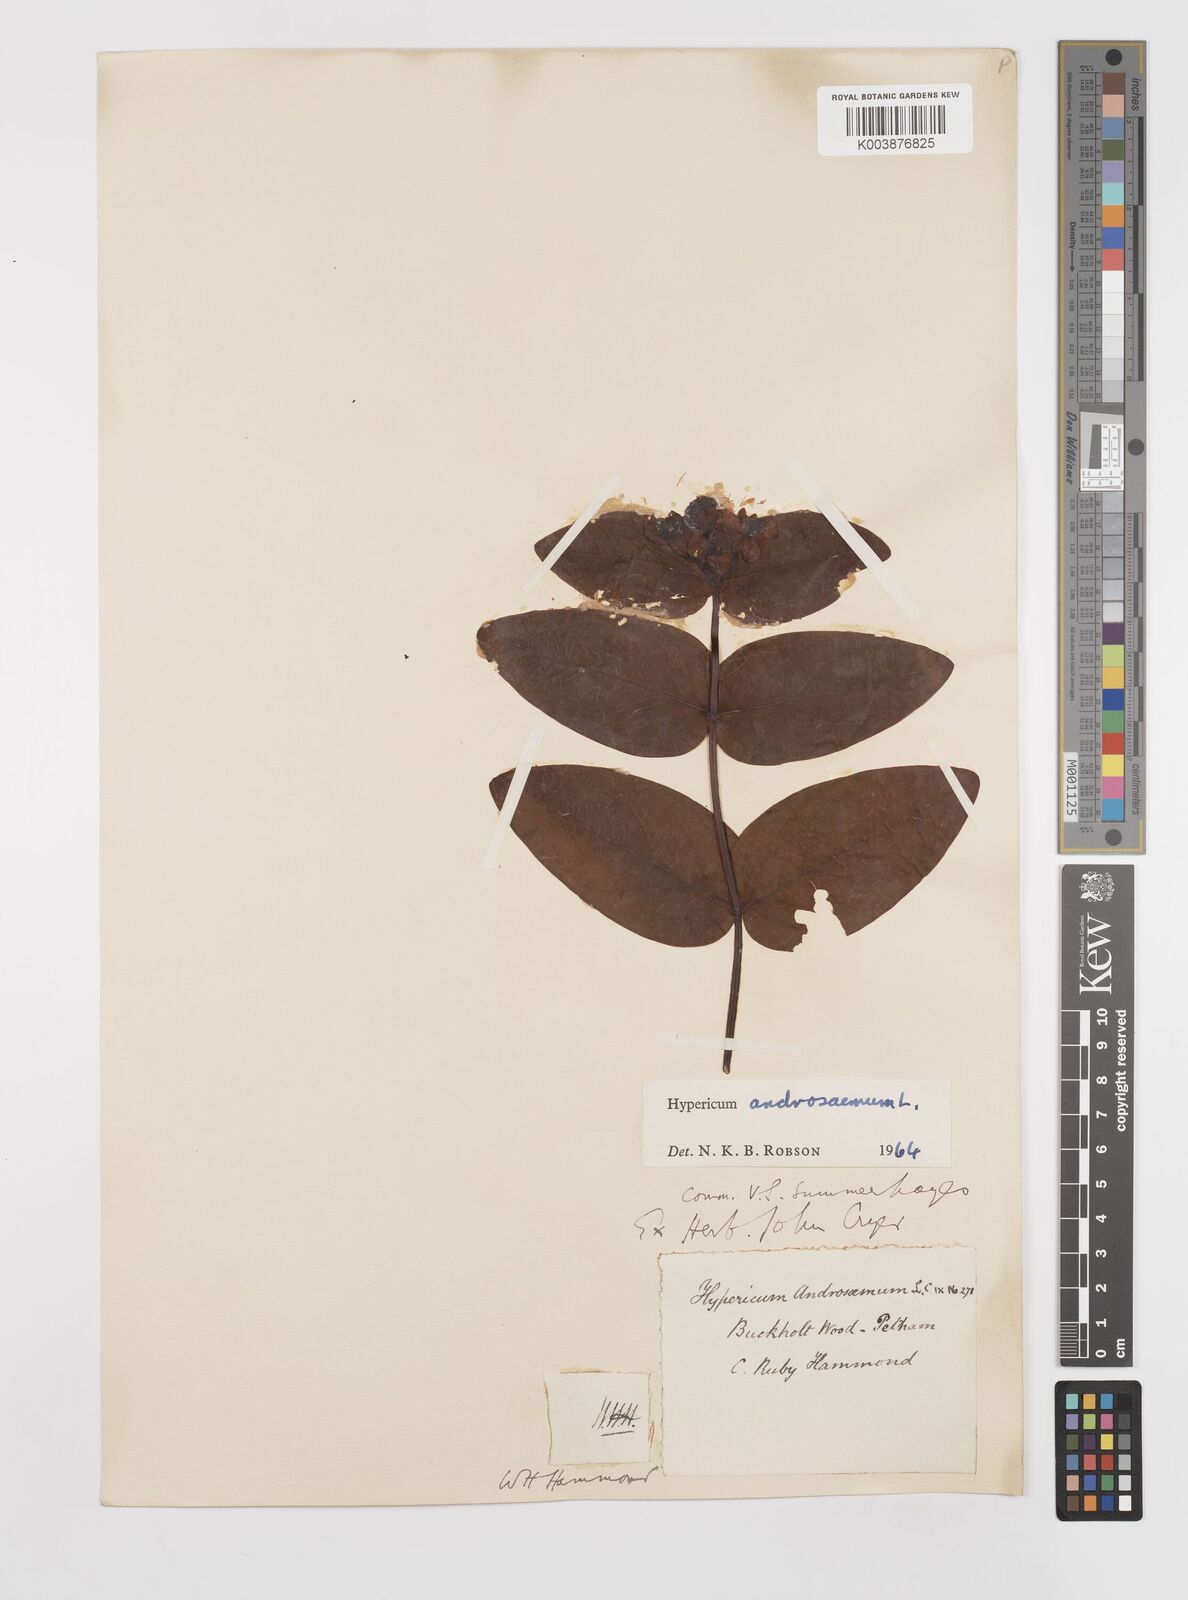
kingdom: Plantae
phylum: Tracheophyta
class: Magnoliopsida
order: Malpighiales
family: Hypericaceae
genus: Hypericum
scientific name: Hypericum androsaemum
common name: Sweet-amber
